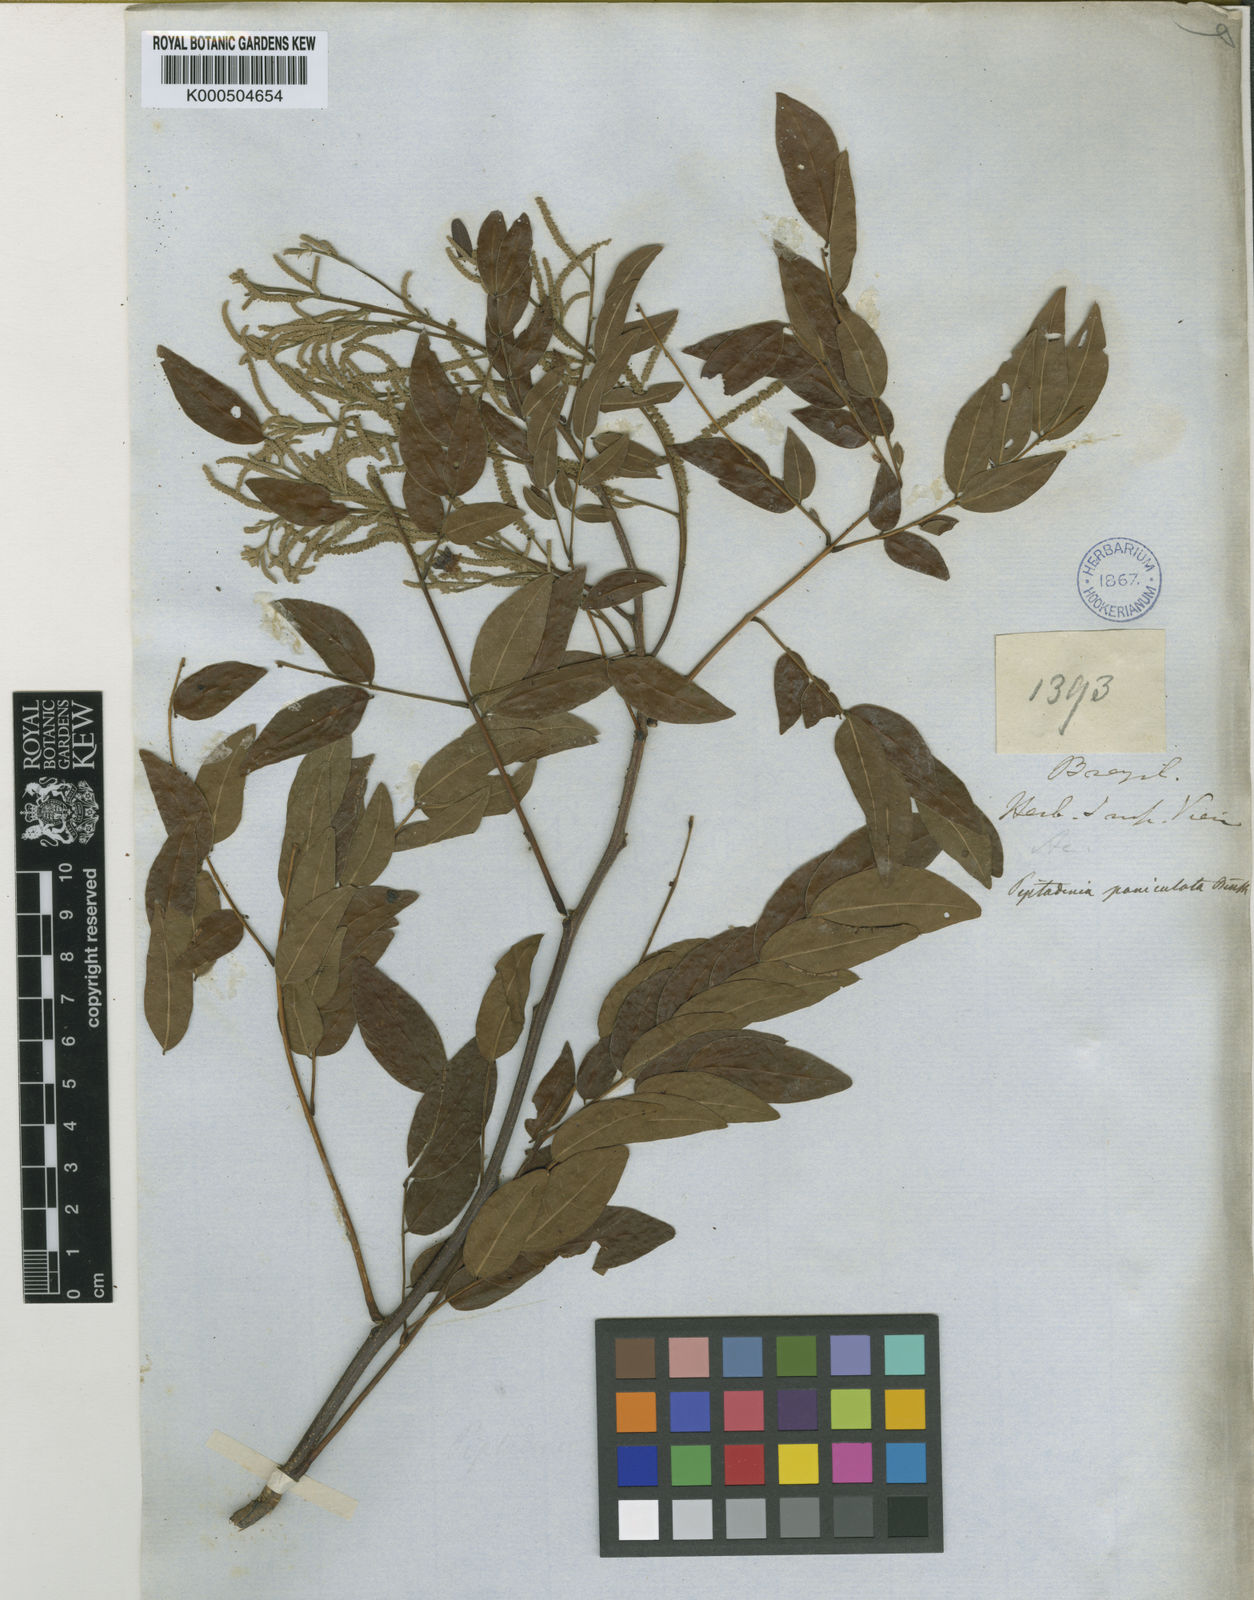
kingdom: Plantae
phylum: Tracheophyta
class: Magnoliopsida
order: Fabales
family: Fabaceae
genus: Piptadenia
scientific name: Piptadenia paniculata
